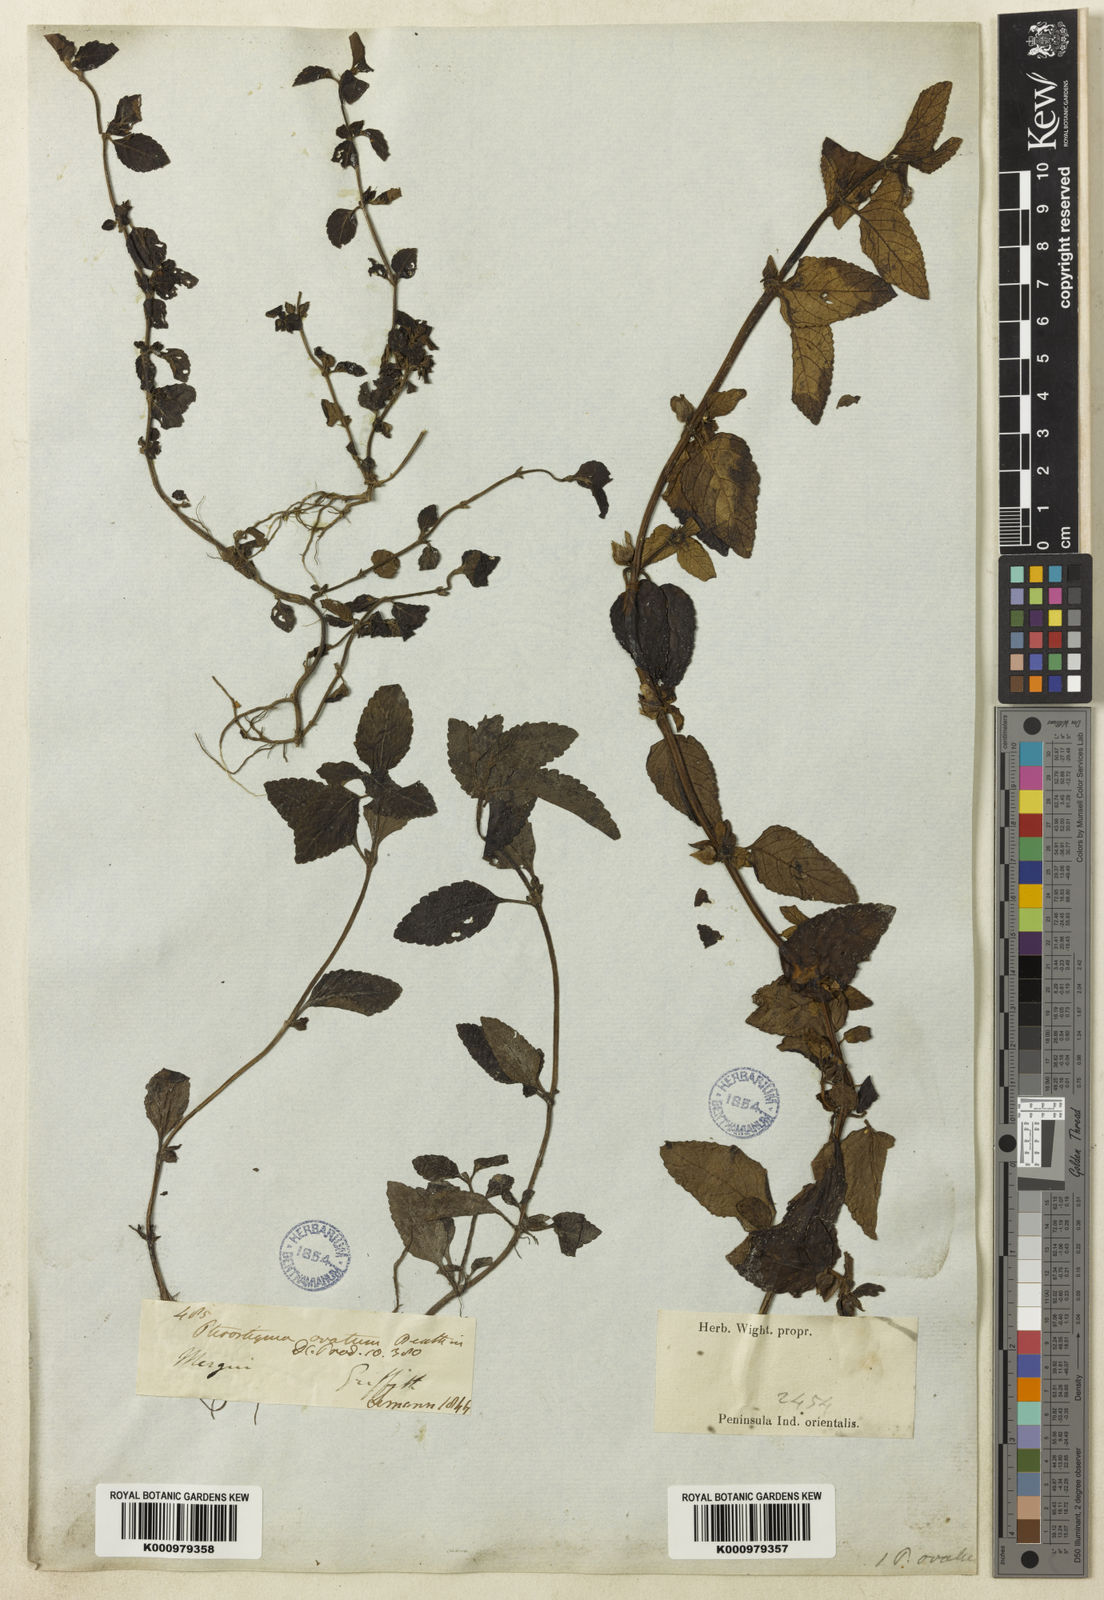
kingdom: Plantae
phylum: Tracheophyta
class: Magnoliopsida
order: Lamiales
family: Plantaginaceae
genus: Adenosma
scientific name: Adenosma
